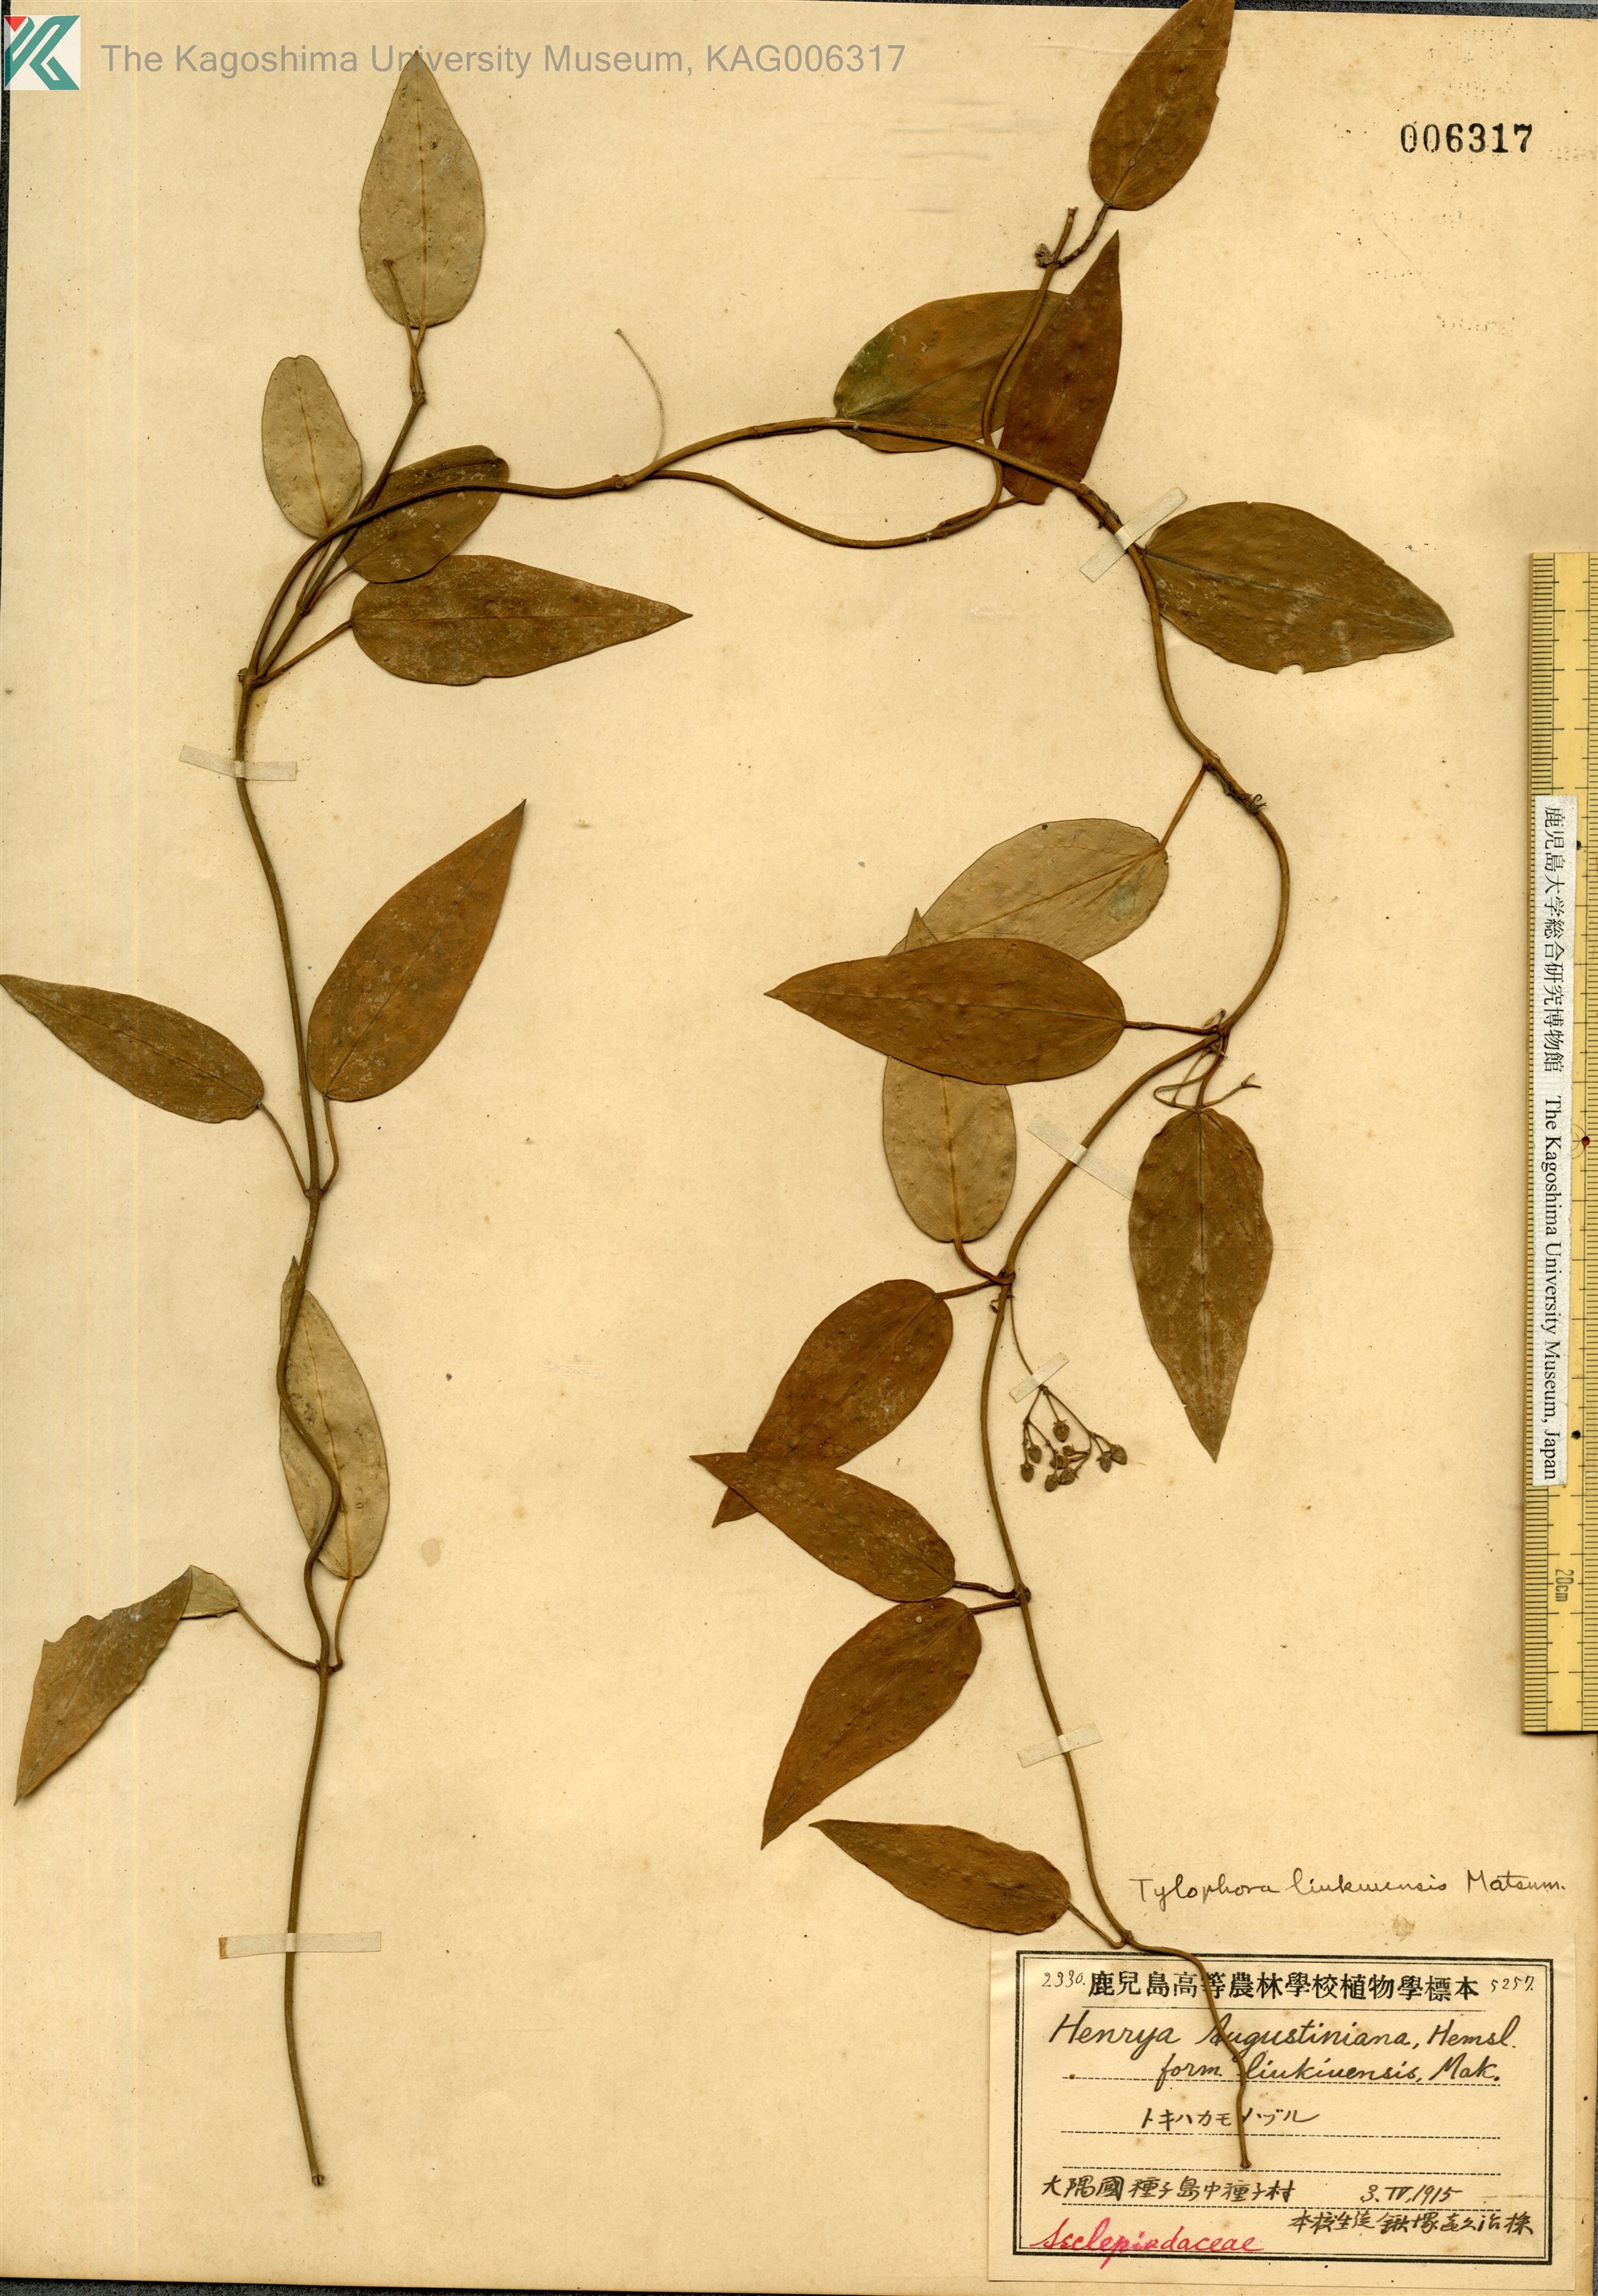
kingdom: Plantae
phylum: Tracheophyta
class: Magnoliopsida
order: Gentianales
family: Apocynaceae
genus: Vincetoxicum
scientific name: Vincetoxicum sieboldii
